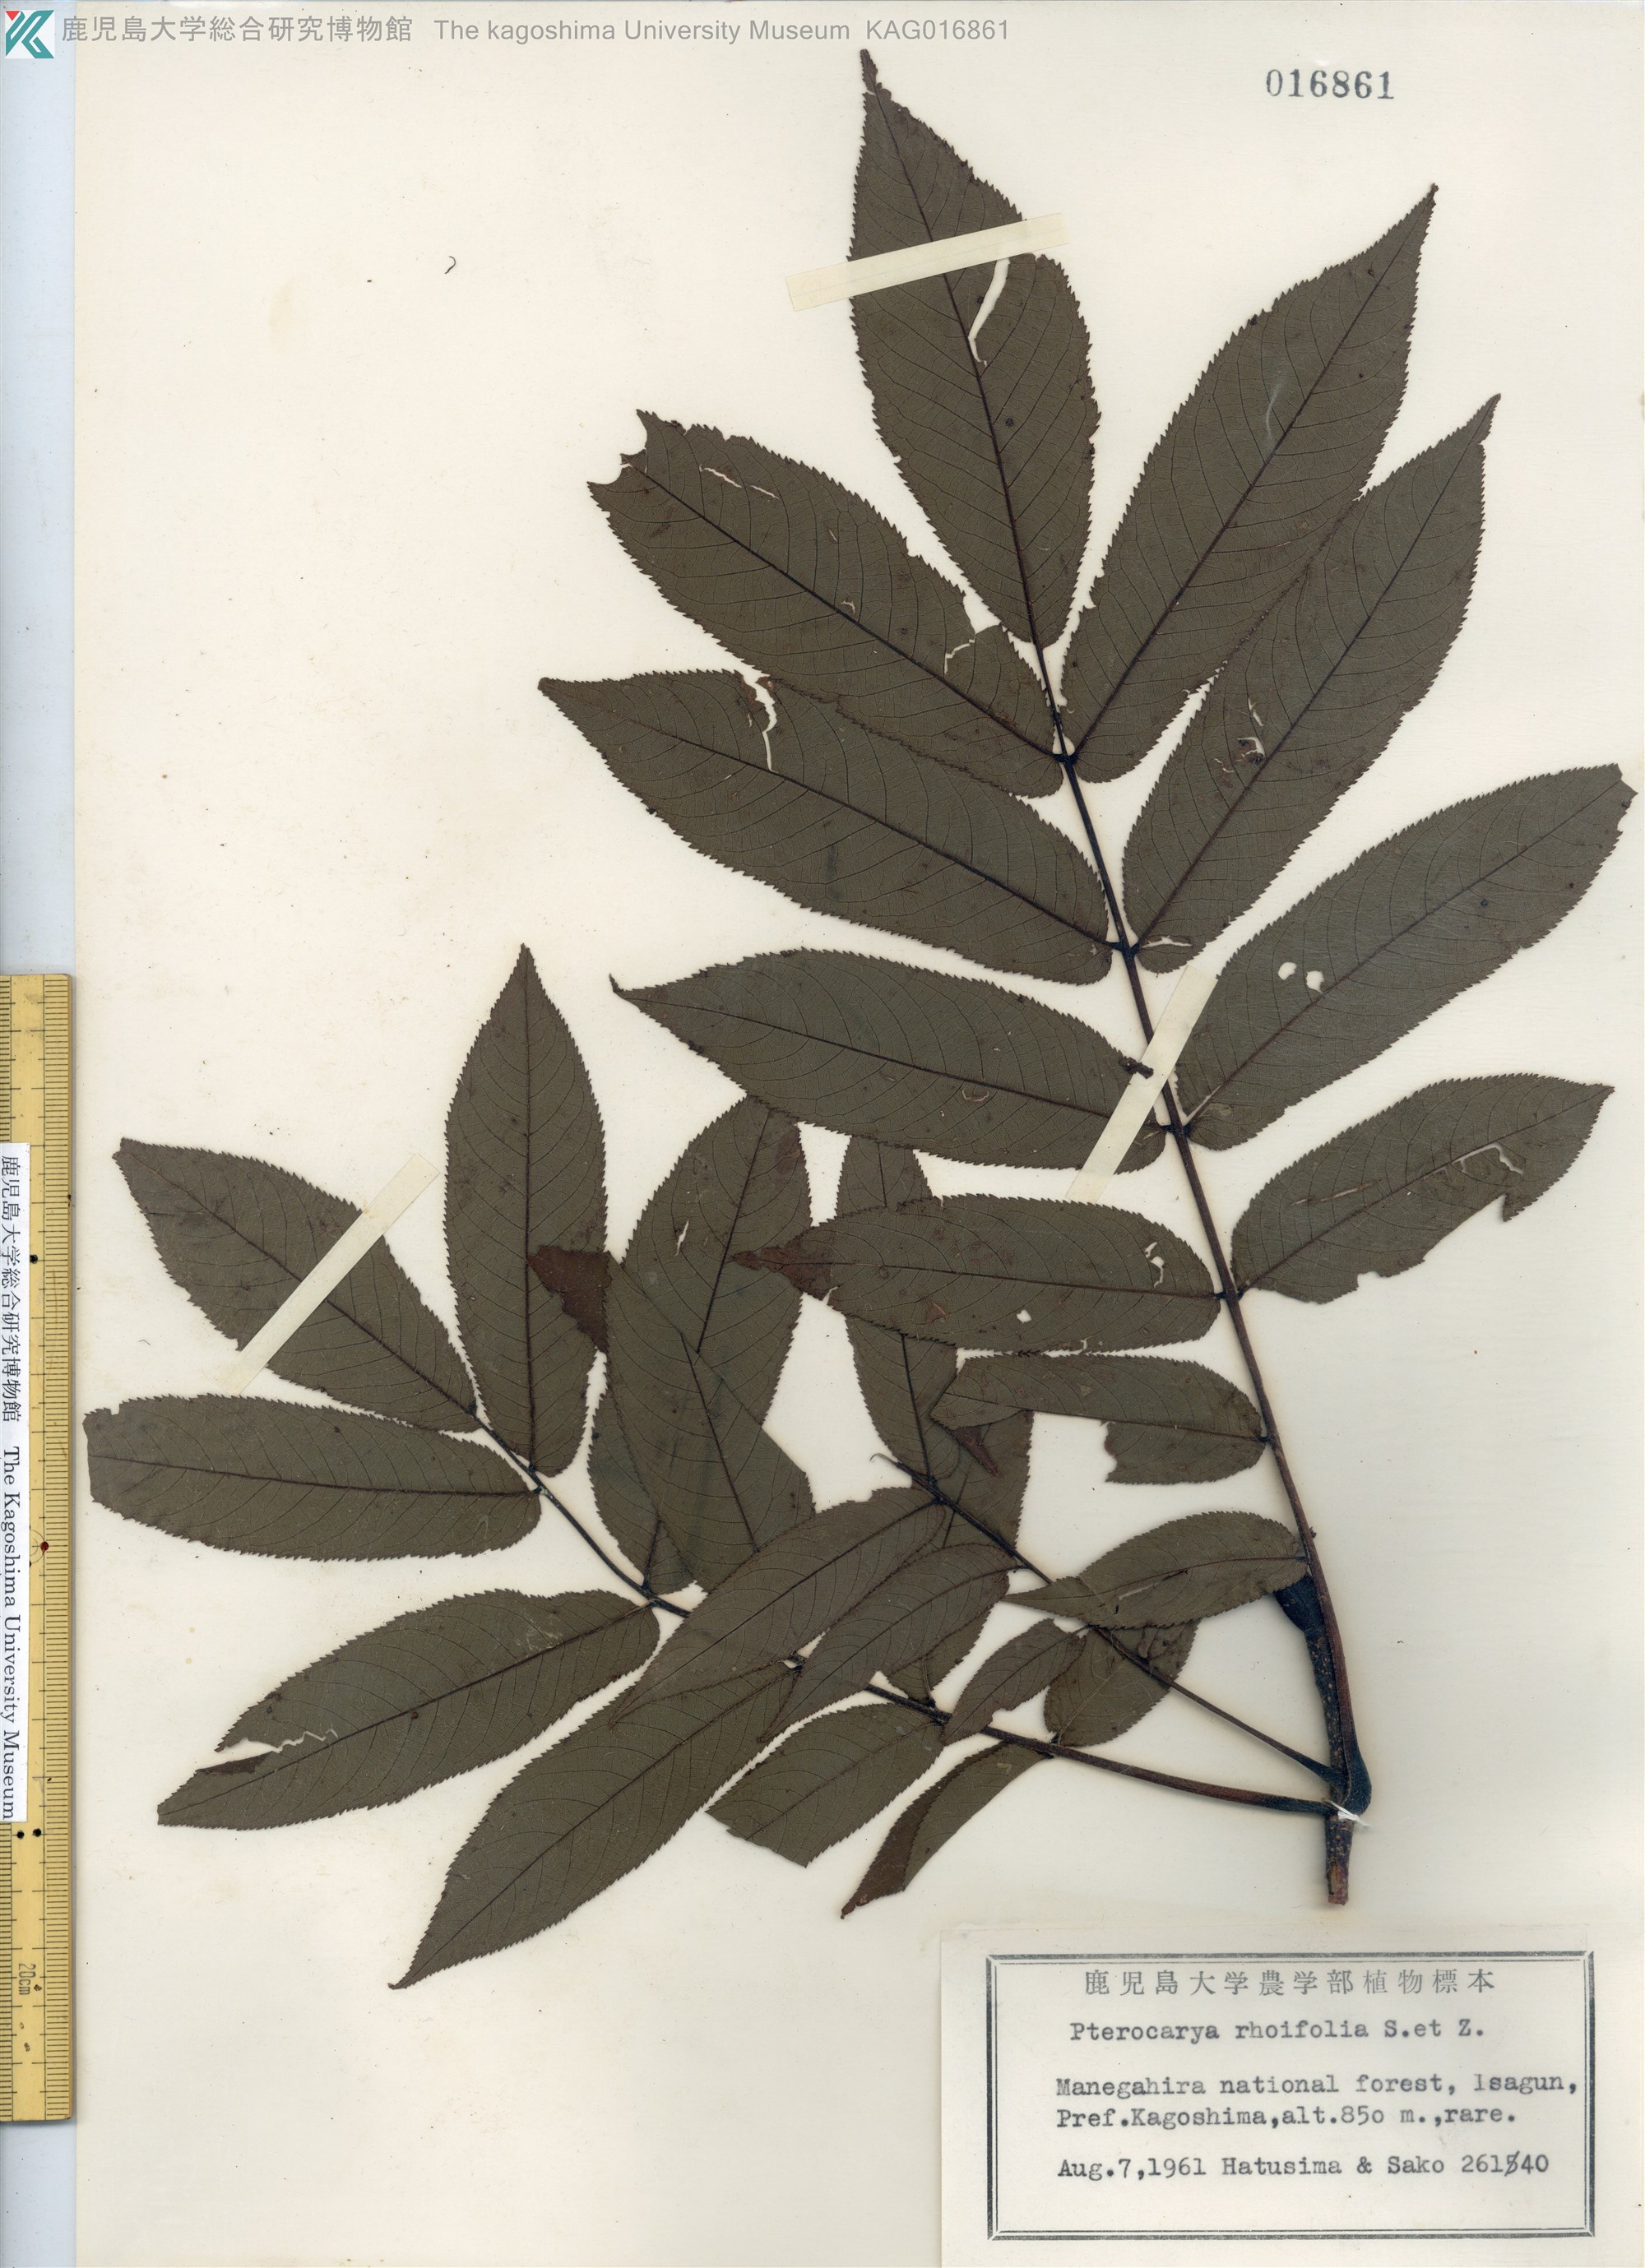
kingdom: Plantae
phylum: Tracheophyta
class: Magnoliopsida
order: Fagales
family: Juglandaceae
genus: Pterocarya
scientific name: Pterocarya rhoifolia
